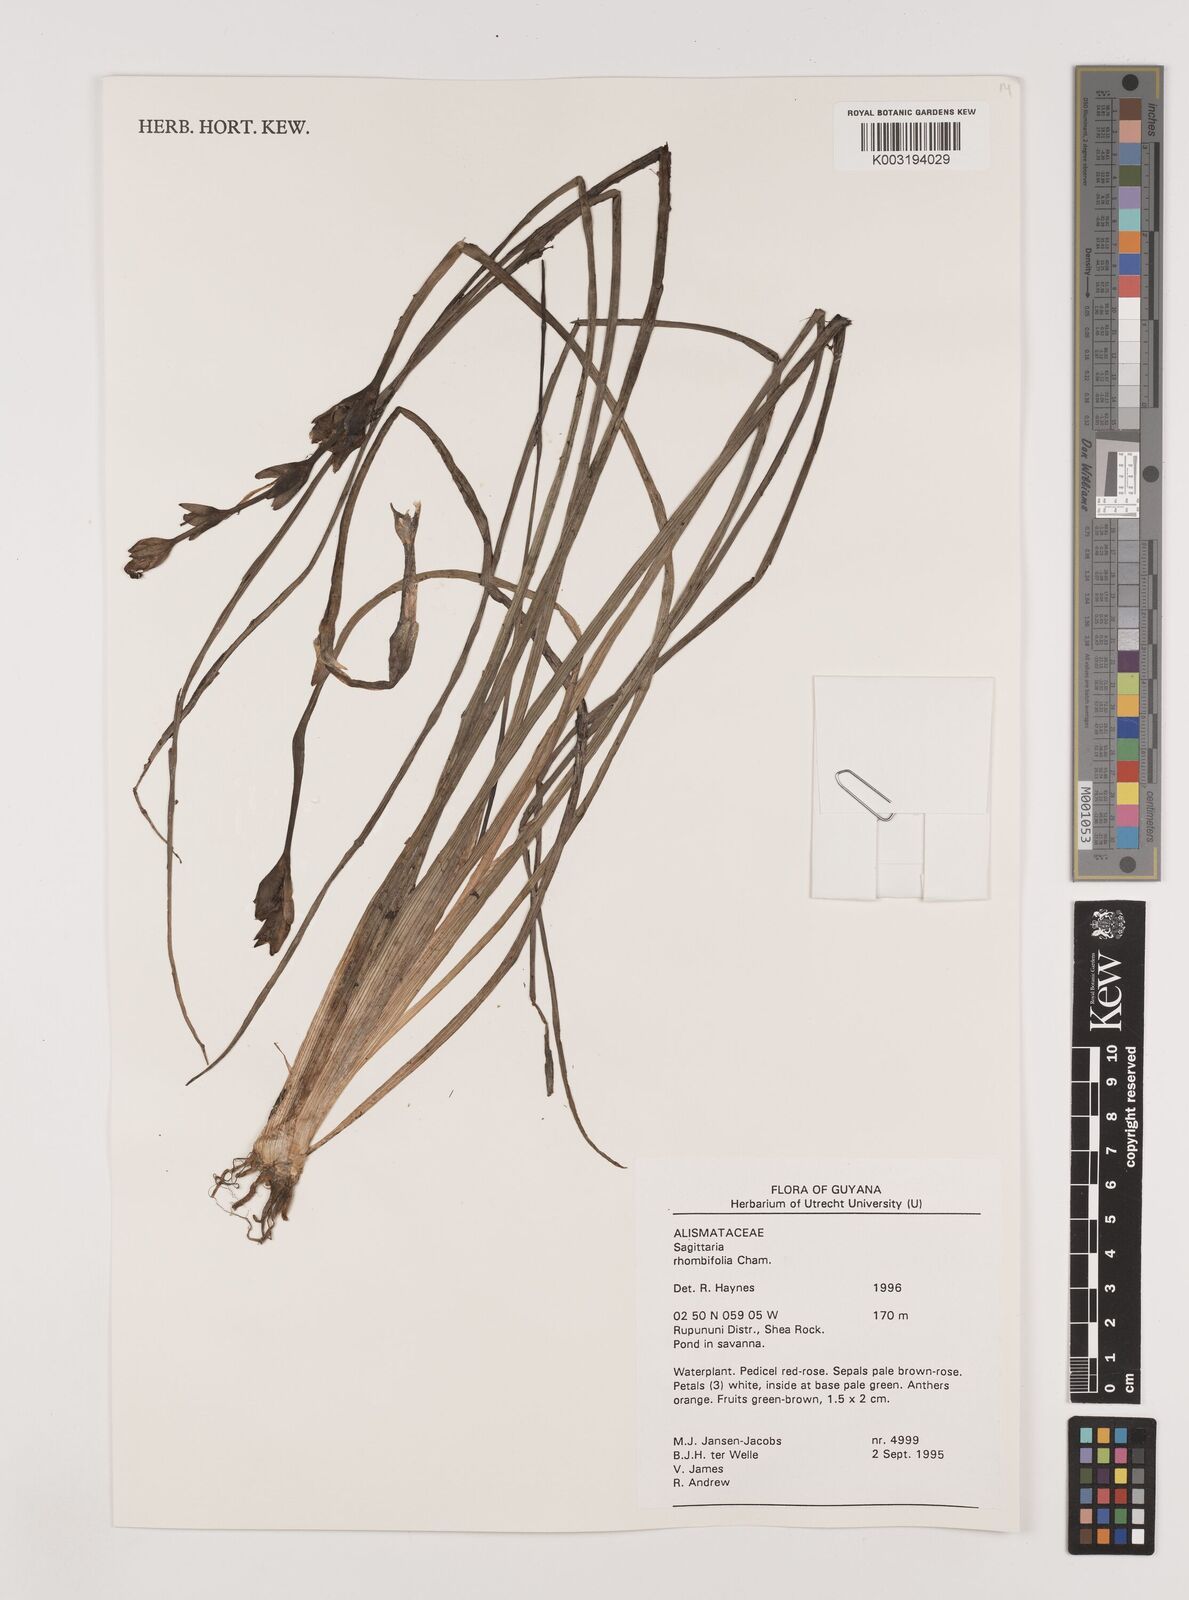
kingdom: Plantae
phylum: Tracheophyta
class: Liliopsida
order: Alismatales
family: Alismataceae
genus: Sagittaria
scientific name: Sagittaria rhombifolia
